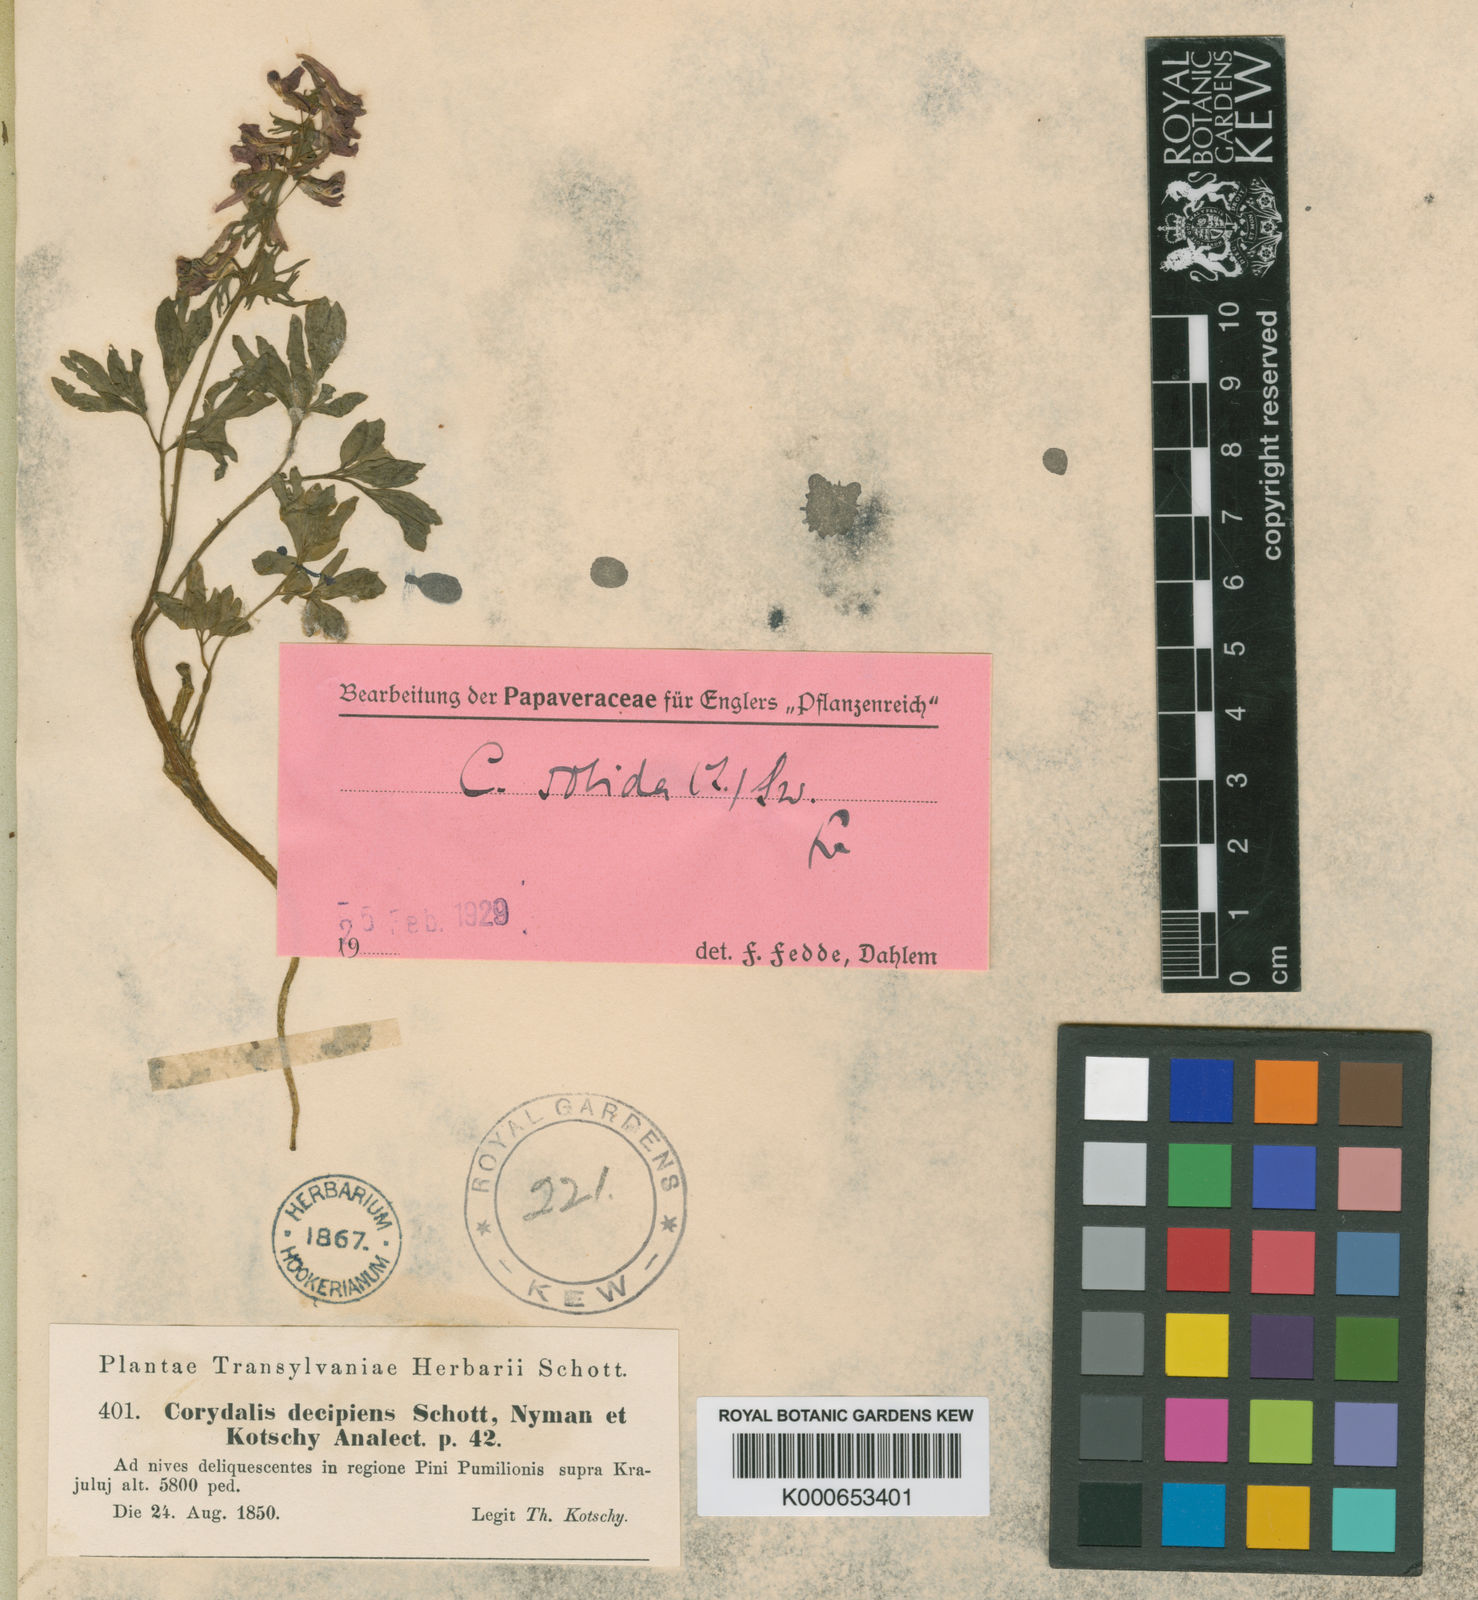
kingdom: Plantae
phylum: Tracheophyta
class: Magnoliopsida
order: Ranunculales
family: Papaveraceae
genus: Corydalis
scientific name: Corydalis
